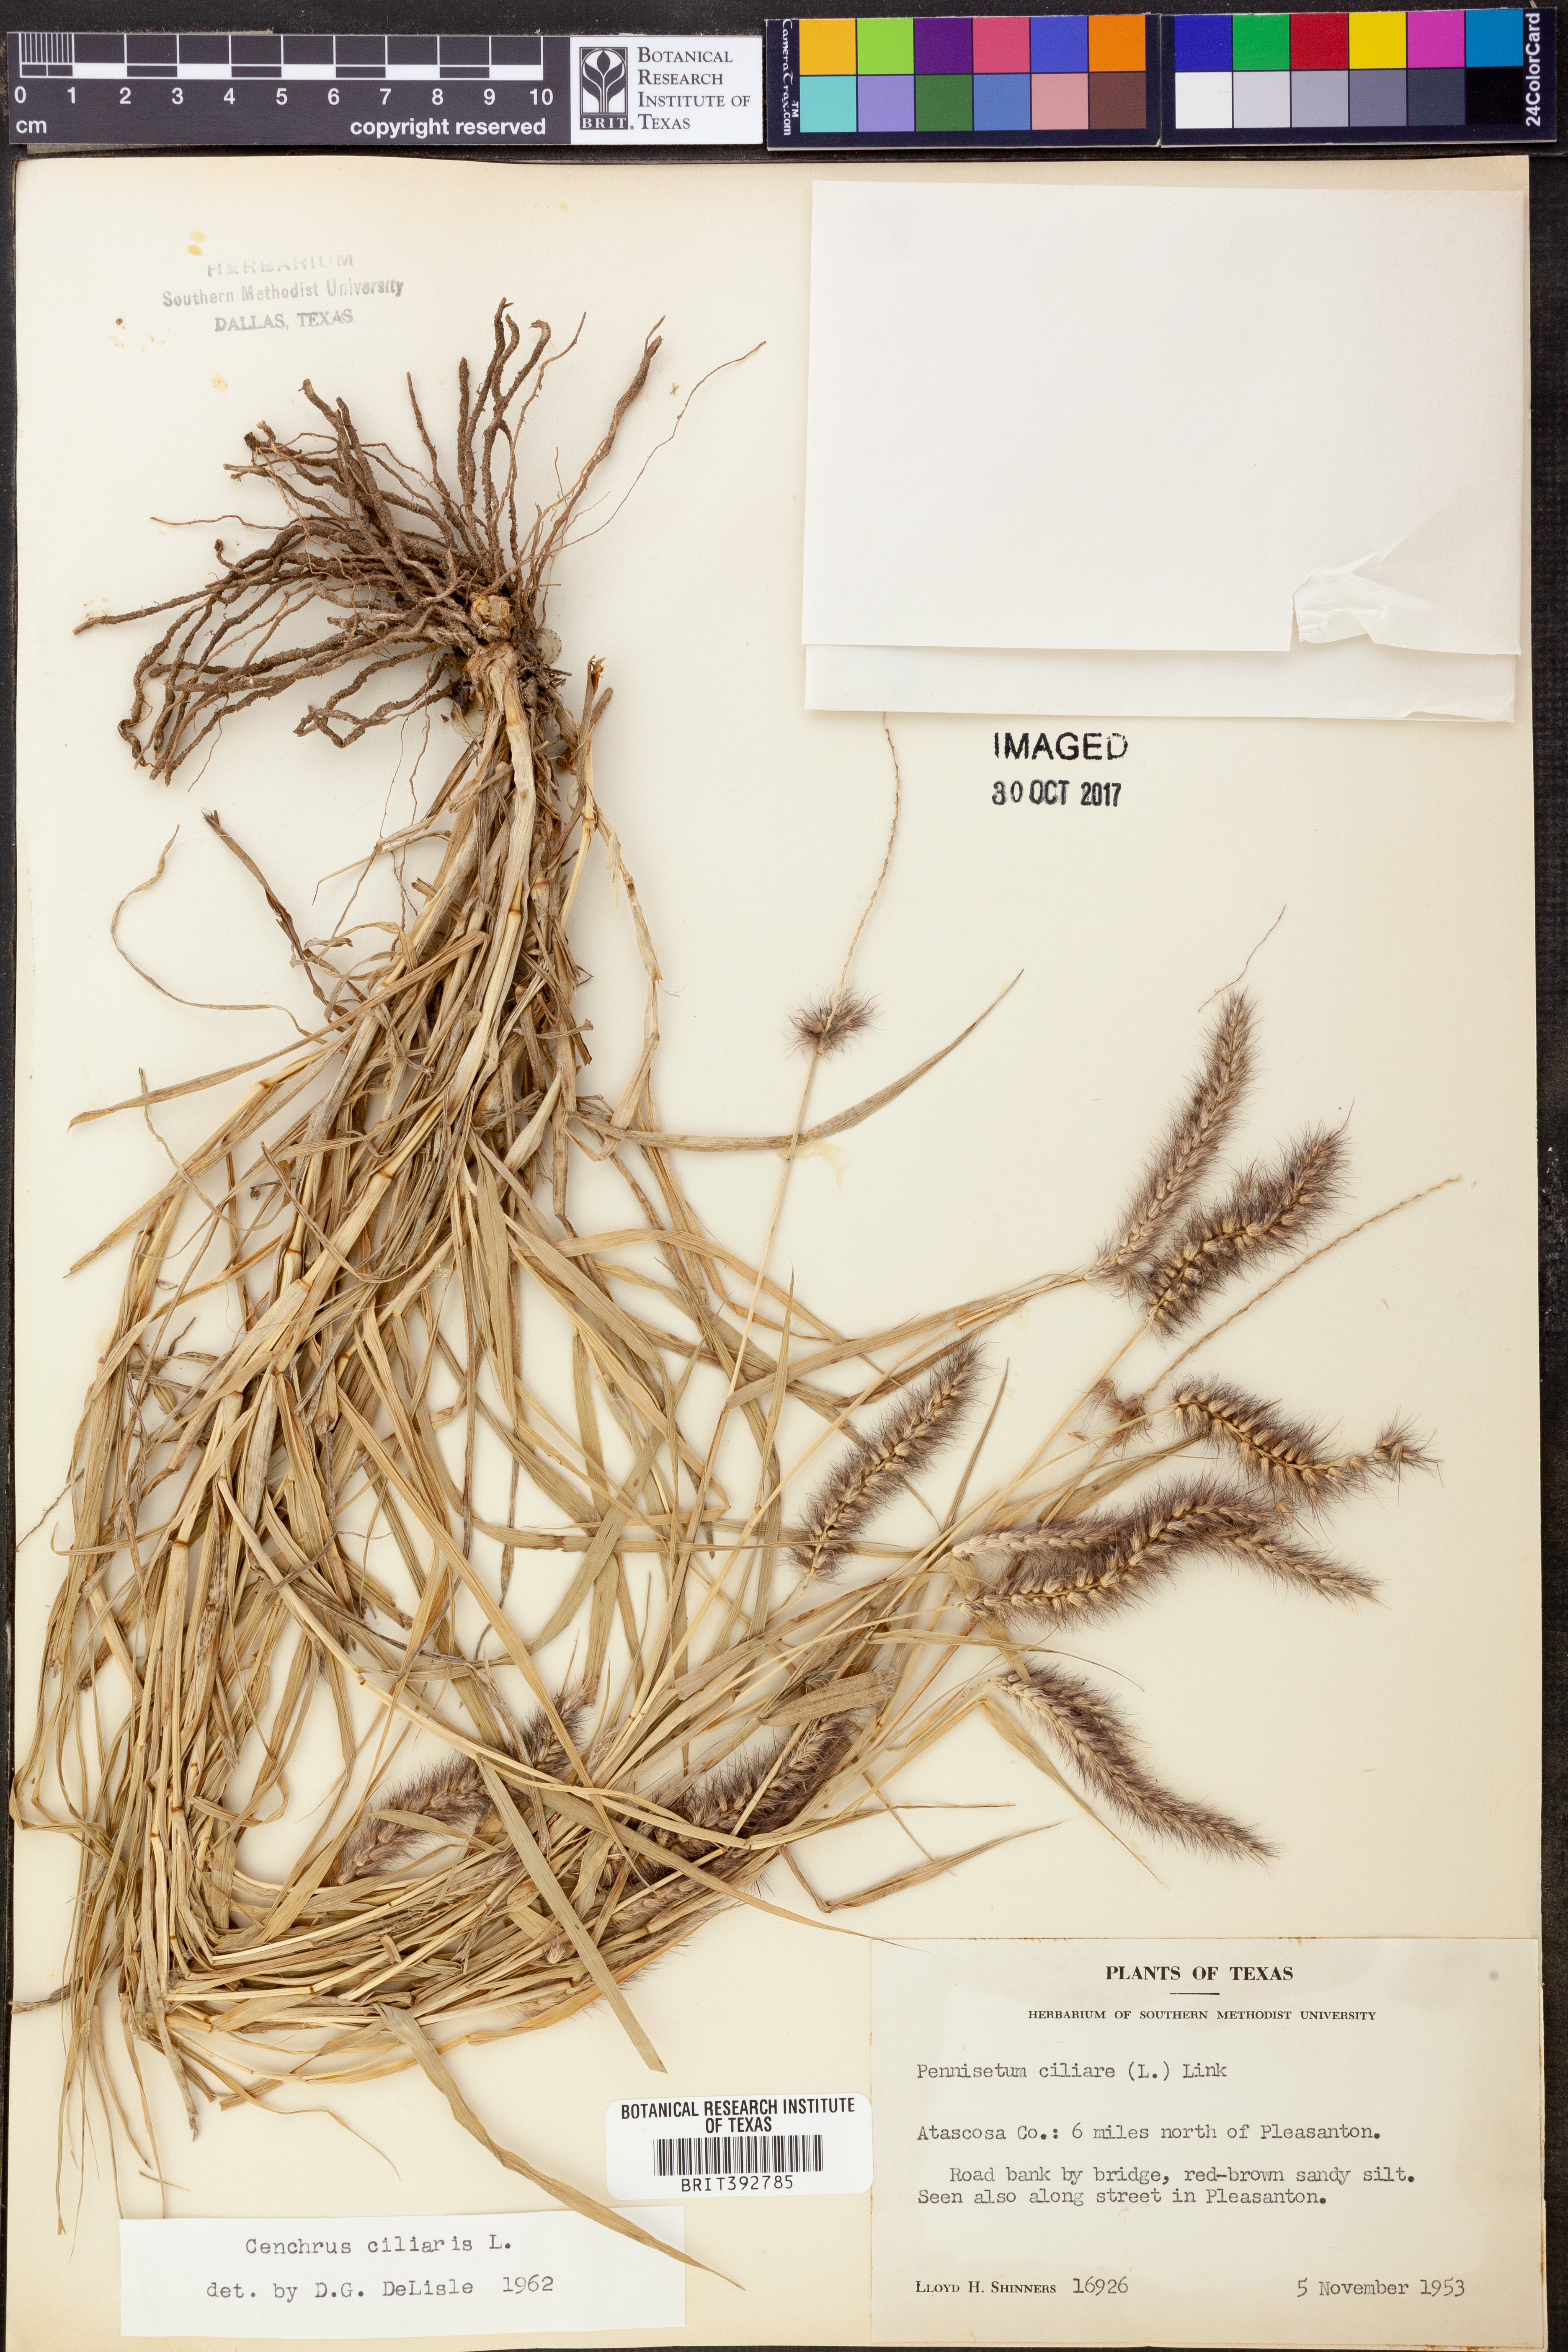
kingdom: Plantae
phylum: Tracheophyta
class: Liliopsida
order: Poales
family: Poaceae
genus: Cenchrus
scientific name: Cenchrus ciliaris
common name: Buffelgrass
